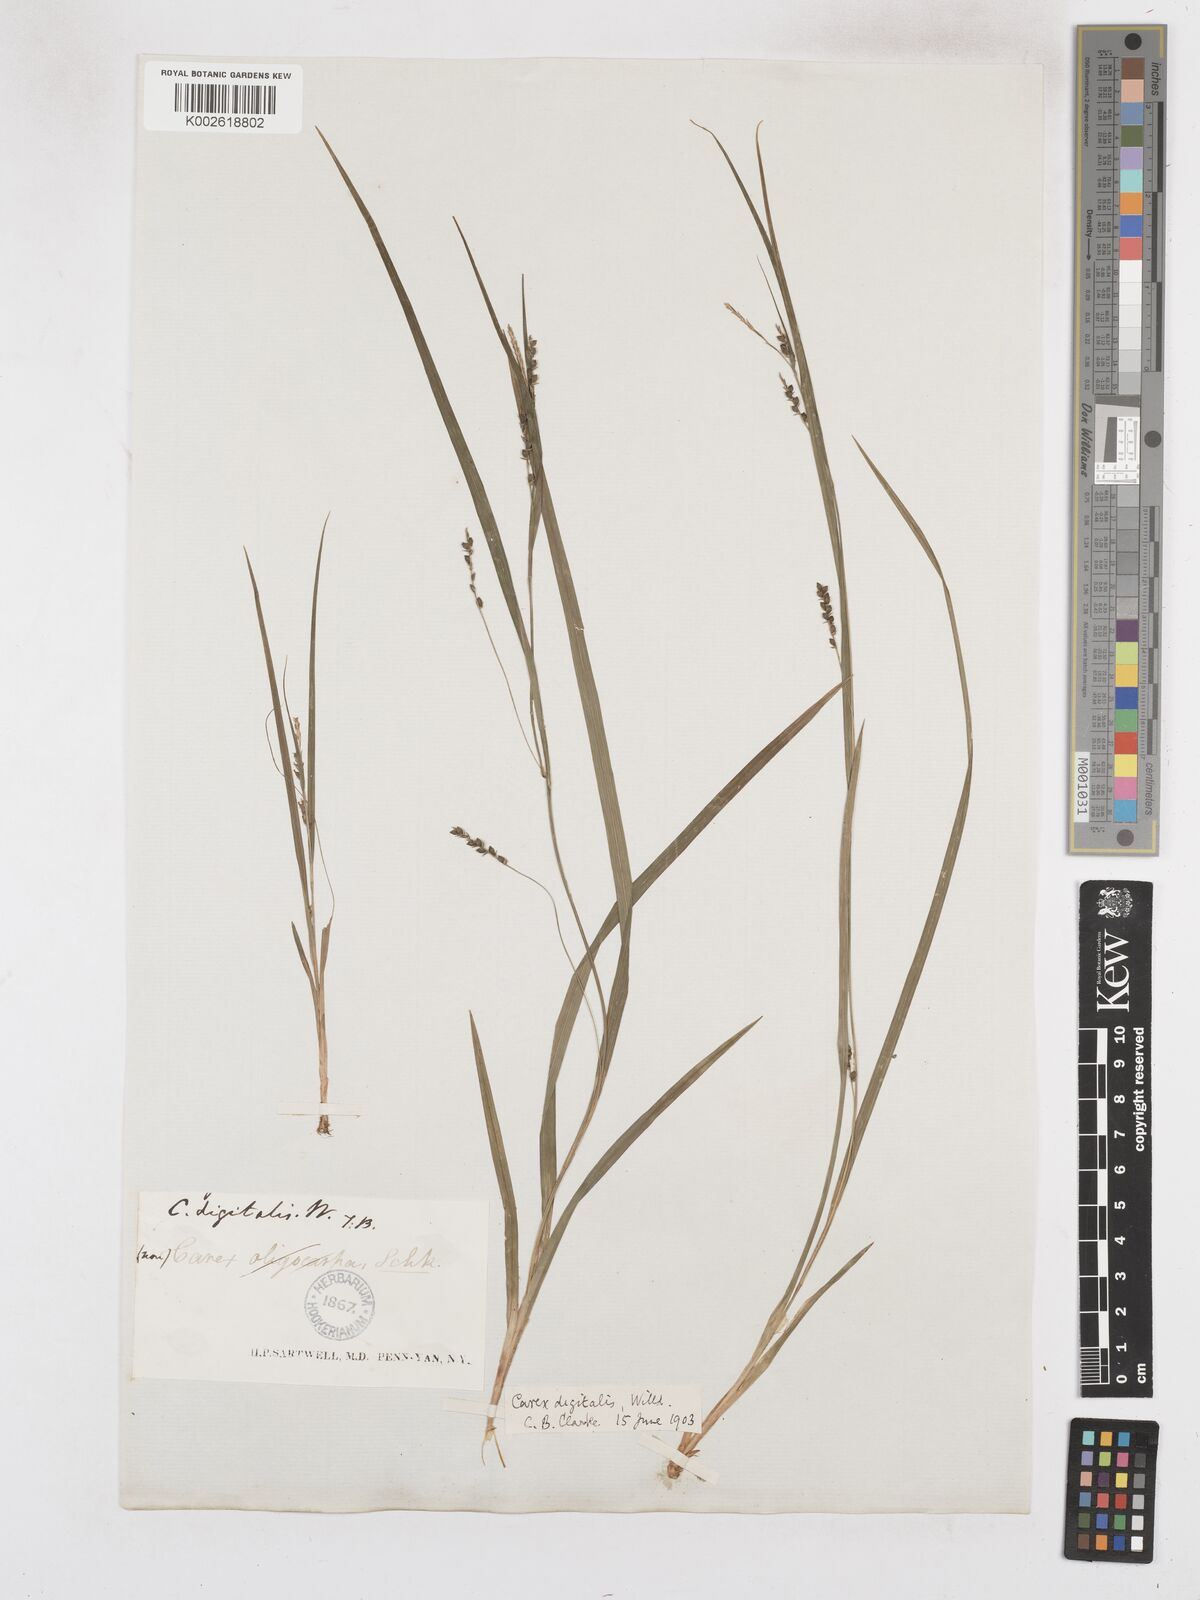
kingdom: Plantae
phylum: Tracheophyta
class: Liliopsida
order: Poales
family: Cyperaceae
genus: Carex
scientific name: Carex digitalis
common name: Slender wood sedge
